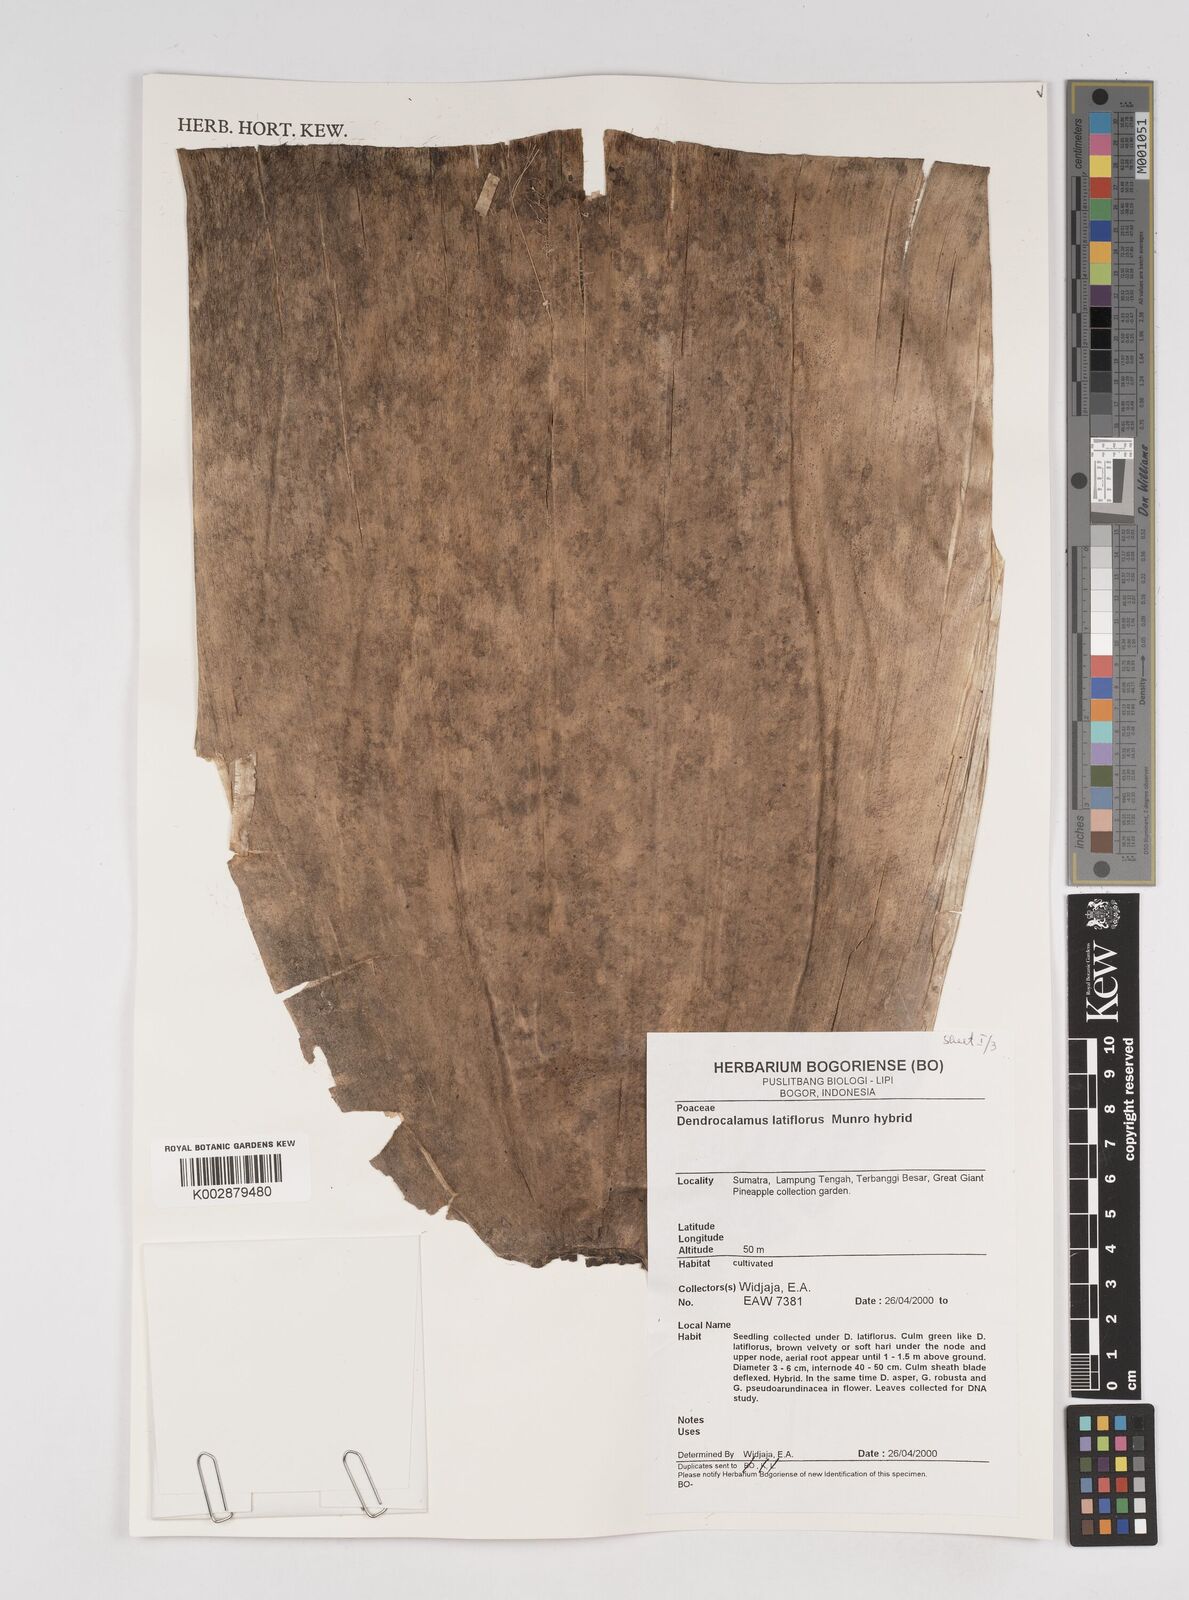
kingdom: Plantae
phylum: Tracheophyta
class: Liliopsida
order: Poales
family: Poaceae
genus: Dendrocalamus
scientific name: Dendrocalamus latiflorus
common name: Giant bamboo
